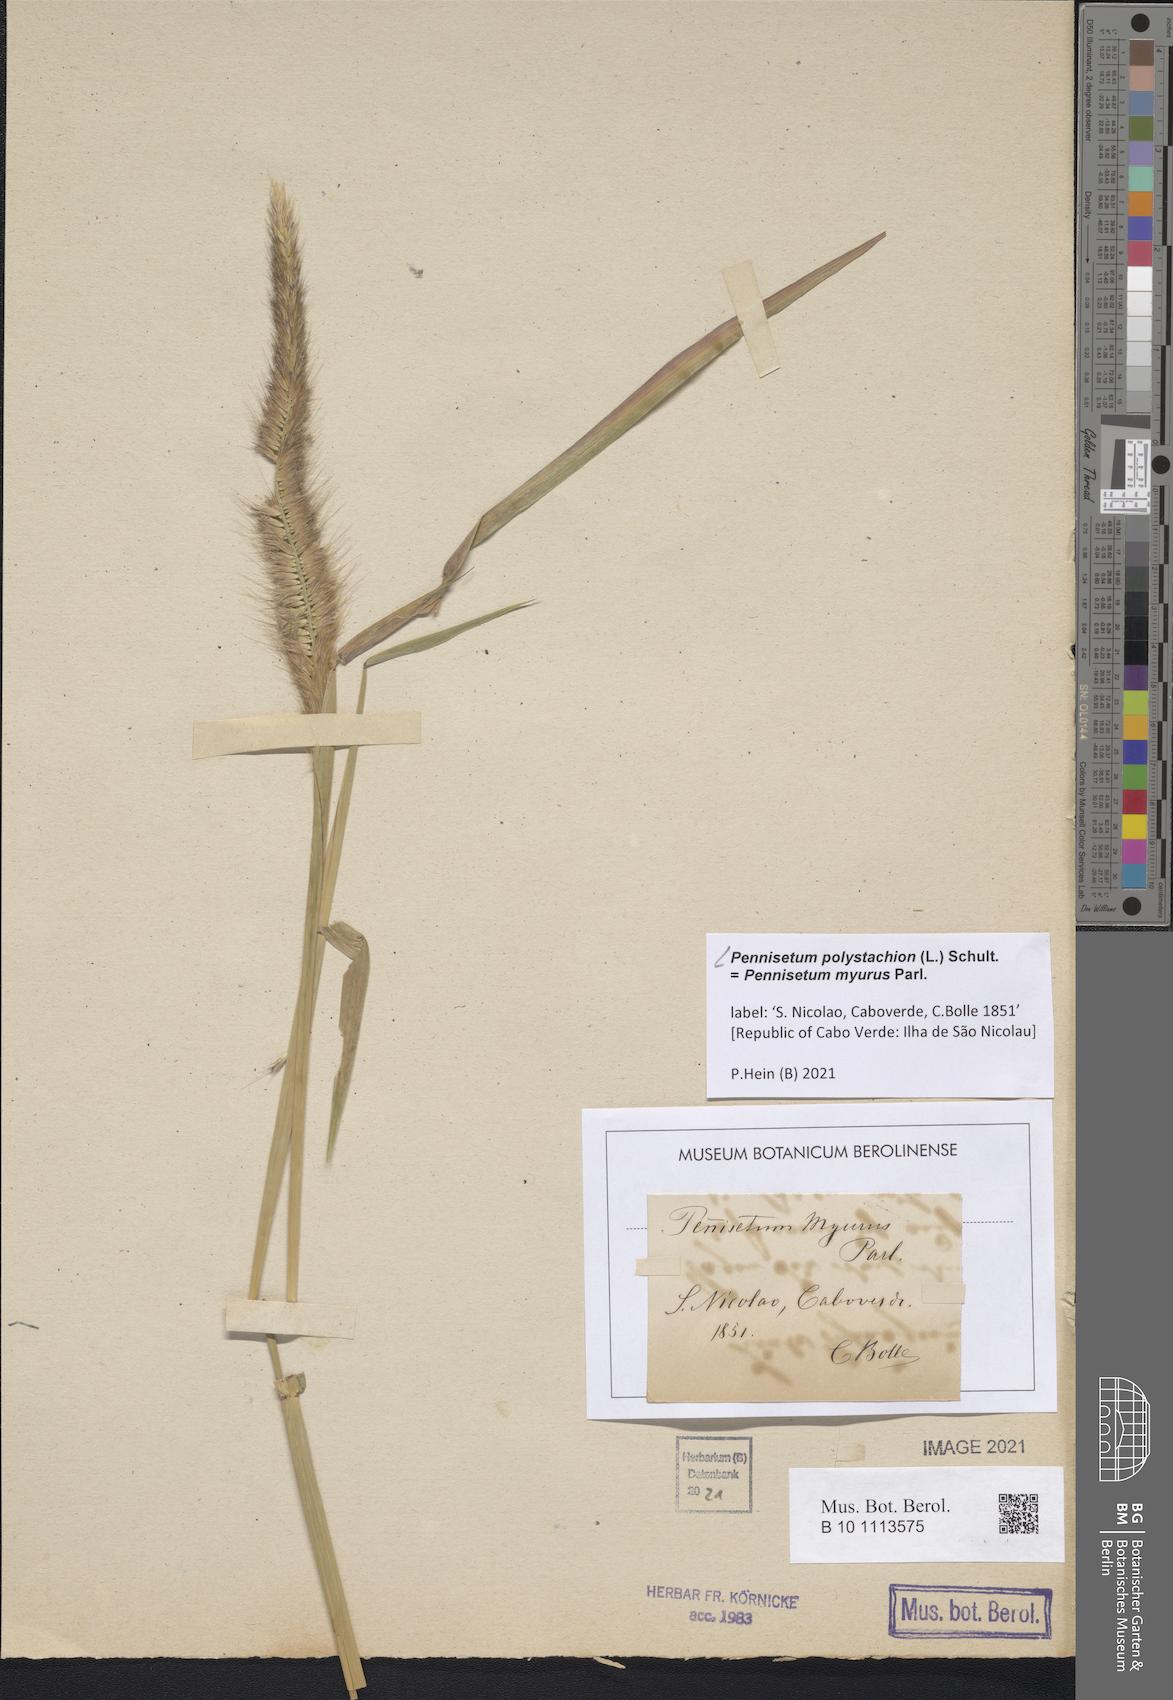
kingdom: Plantae
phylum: Tracheophyta
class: Liliopsida
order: Poales
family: Poaceae
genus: Setaria
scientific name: Setaria parviflora
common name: Knotroot bristle-grass
